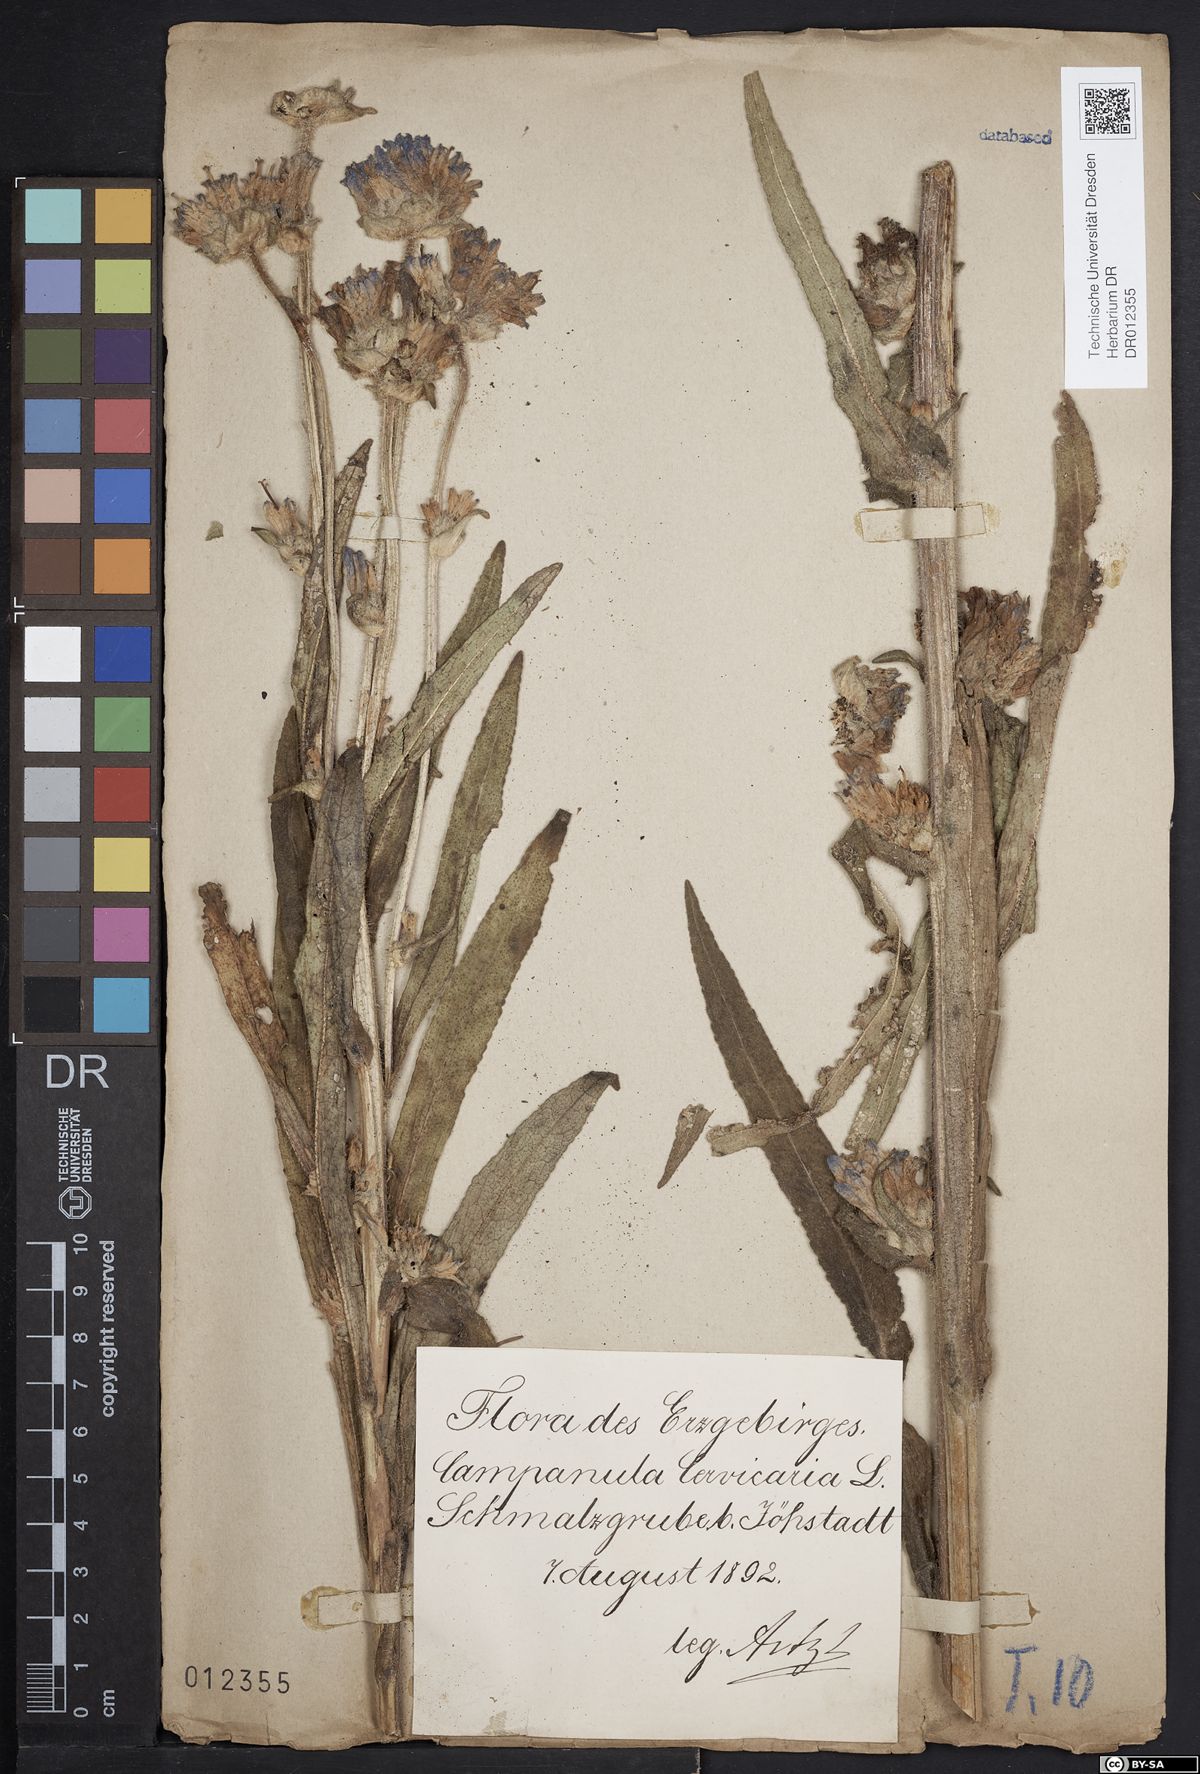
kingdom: Plantae
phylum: Tracheophyta
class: Magnoliopsida
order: Asterales
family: Campanulaceae
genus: Campanula
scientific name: Campanula cervicaria
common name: Bristly bellflower
